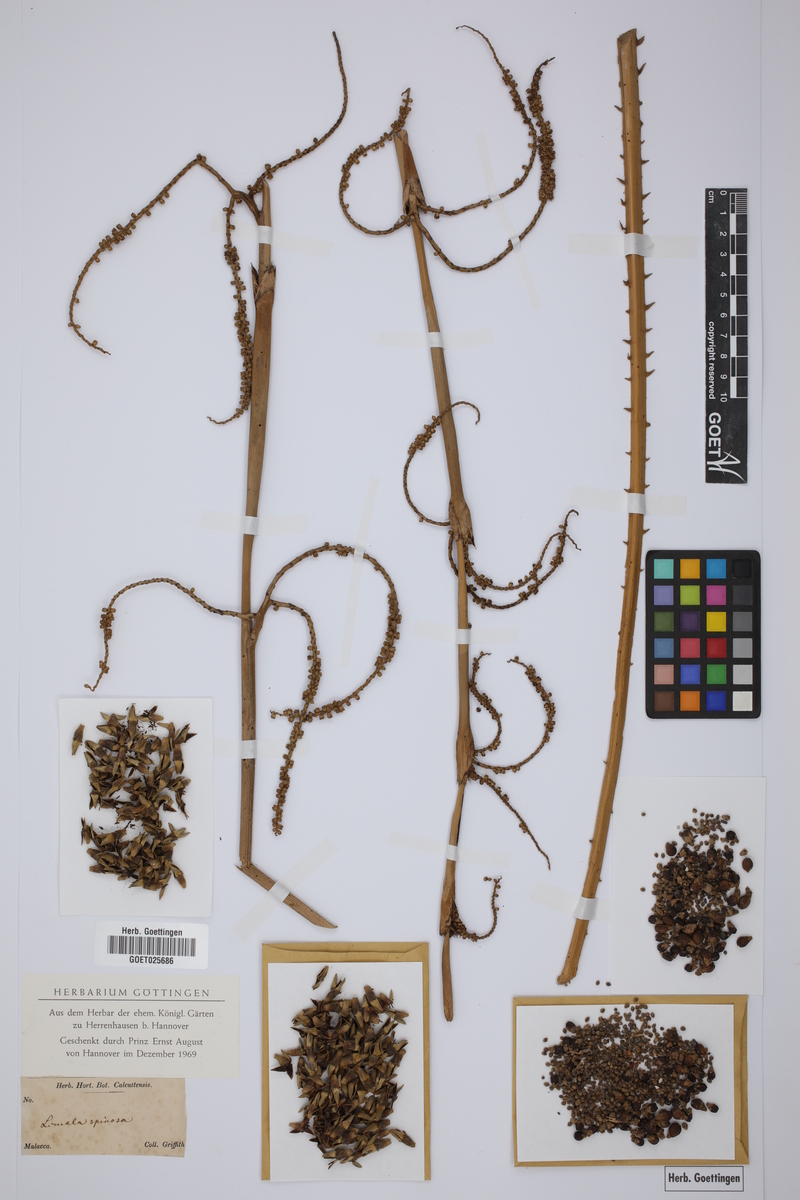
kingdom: Plantae
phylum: Tracheophyta
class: Liliopsida
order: Arecales
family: Arecaceae
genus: Licuala
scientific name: Licuala spinosa
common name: Mangrove fan palm
